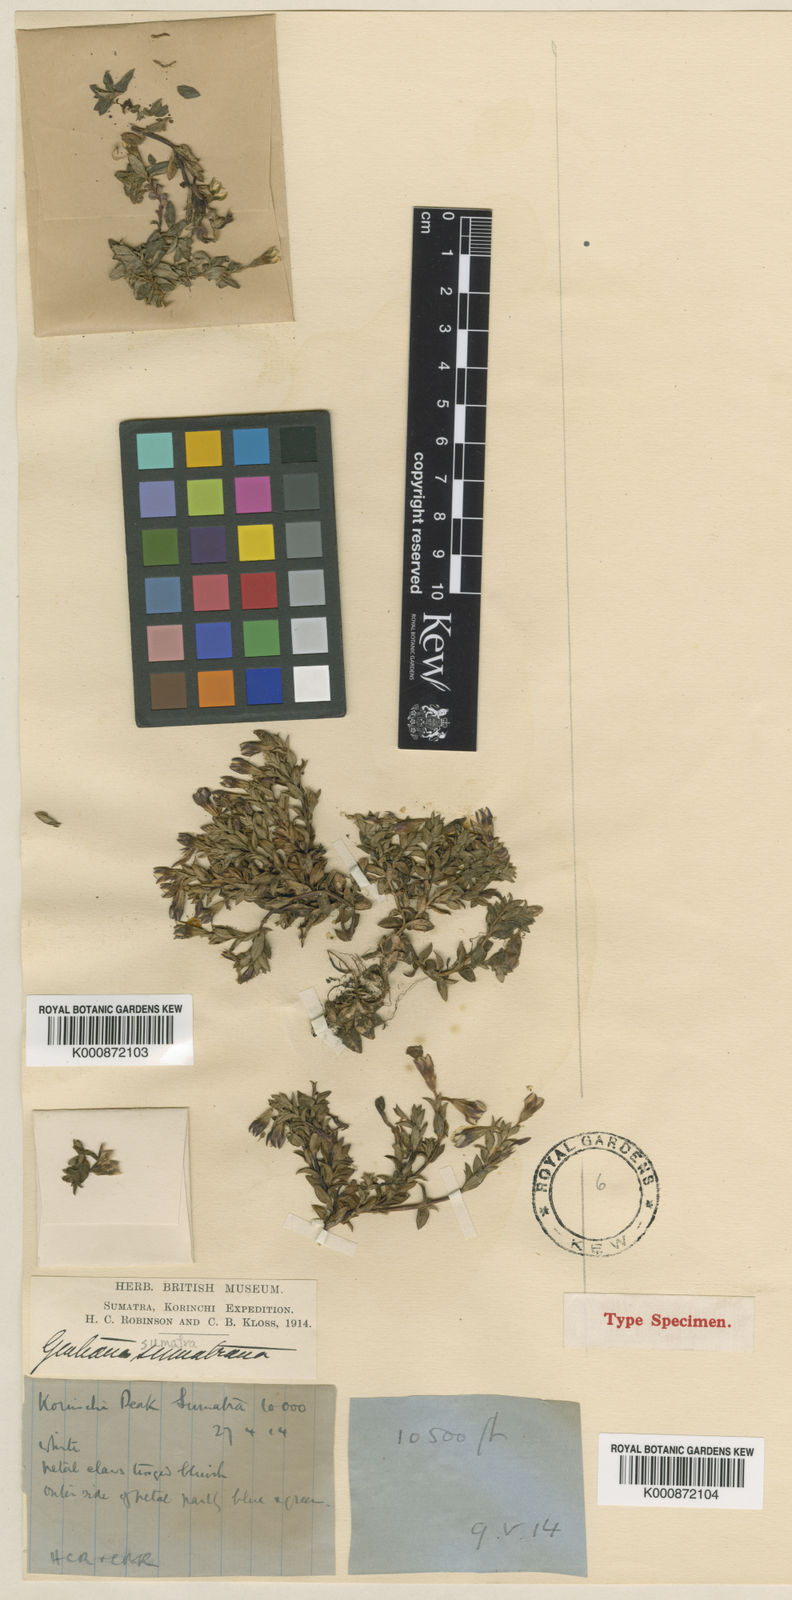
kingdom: Plantae
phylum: Tracheophyta
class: Magnoliopsida
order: Gentianales
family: Gentianaceae
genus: Gentiana
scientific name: Gentiana sumatrana
